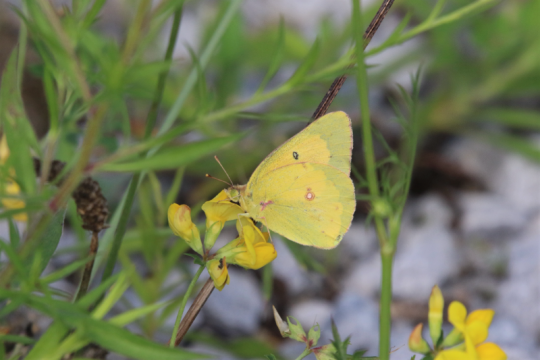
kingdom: Animalia
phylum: Arthropoda
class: Insecta
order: Lepidoptera
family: Pieridae
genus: Colias
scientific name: Colias eurytheme
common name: Orange Sulphur
